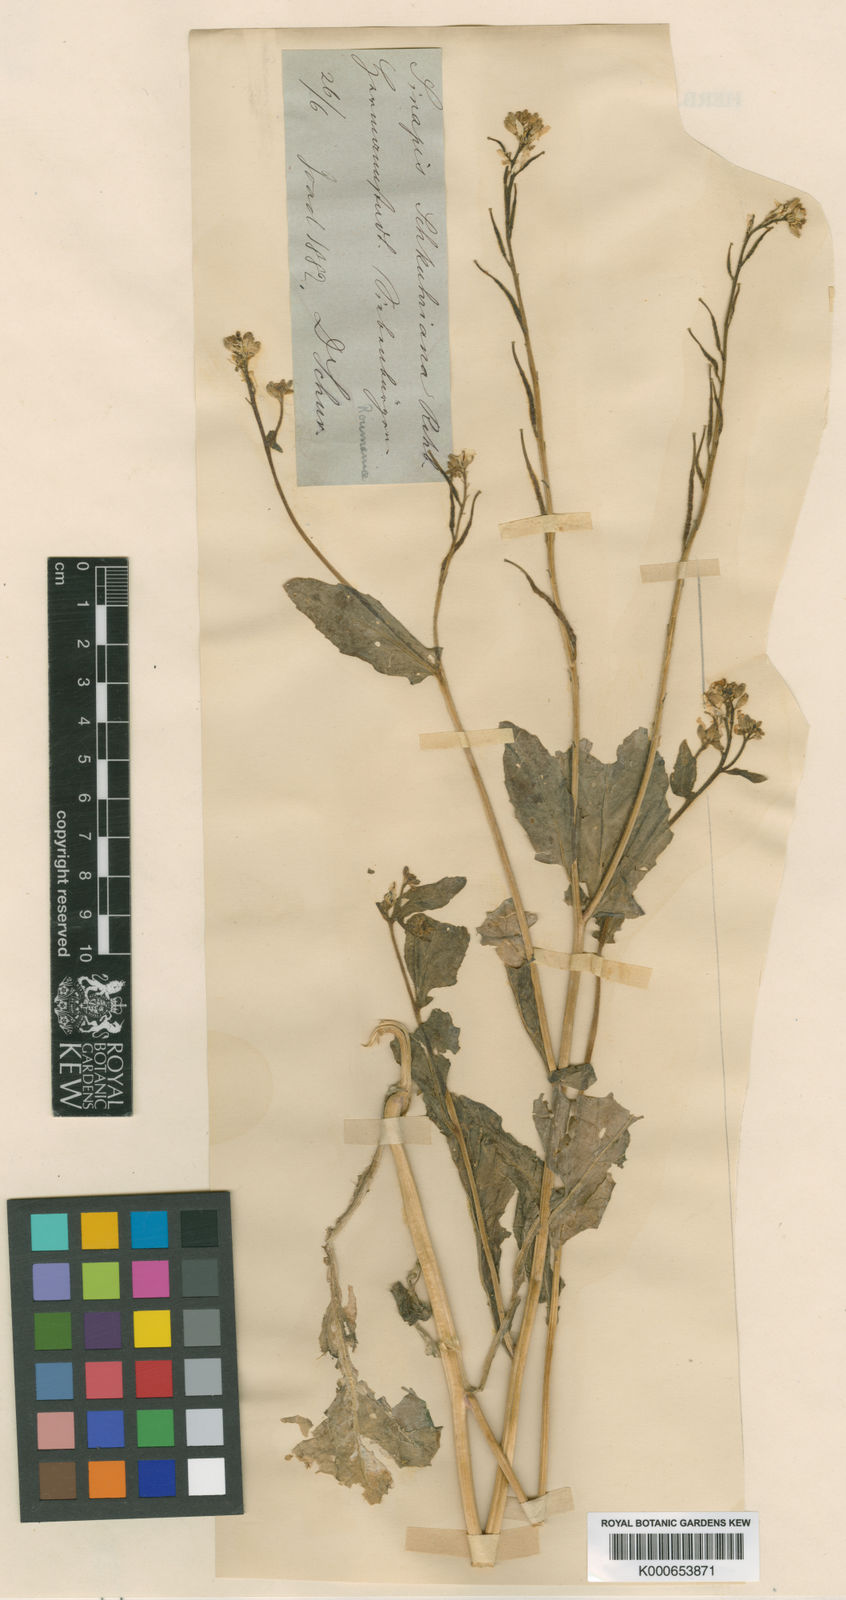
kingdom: Plantae
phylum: Tracheophyta
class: Magnoliopsida
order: Brassicales
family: Brassicaceae
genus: Sinapis
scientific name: Sinapis arvensis
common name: Charlock
